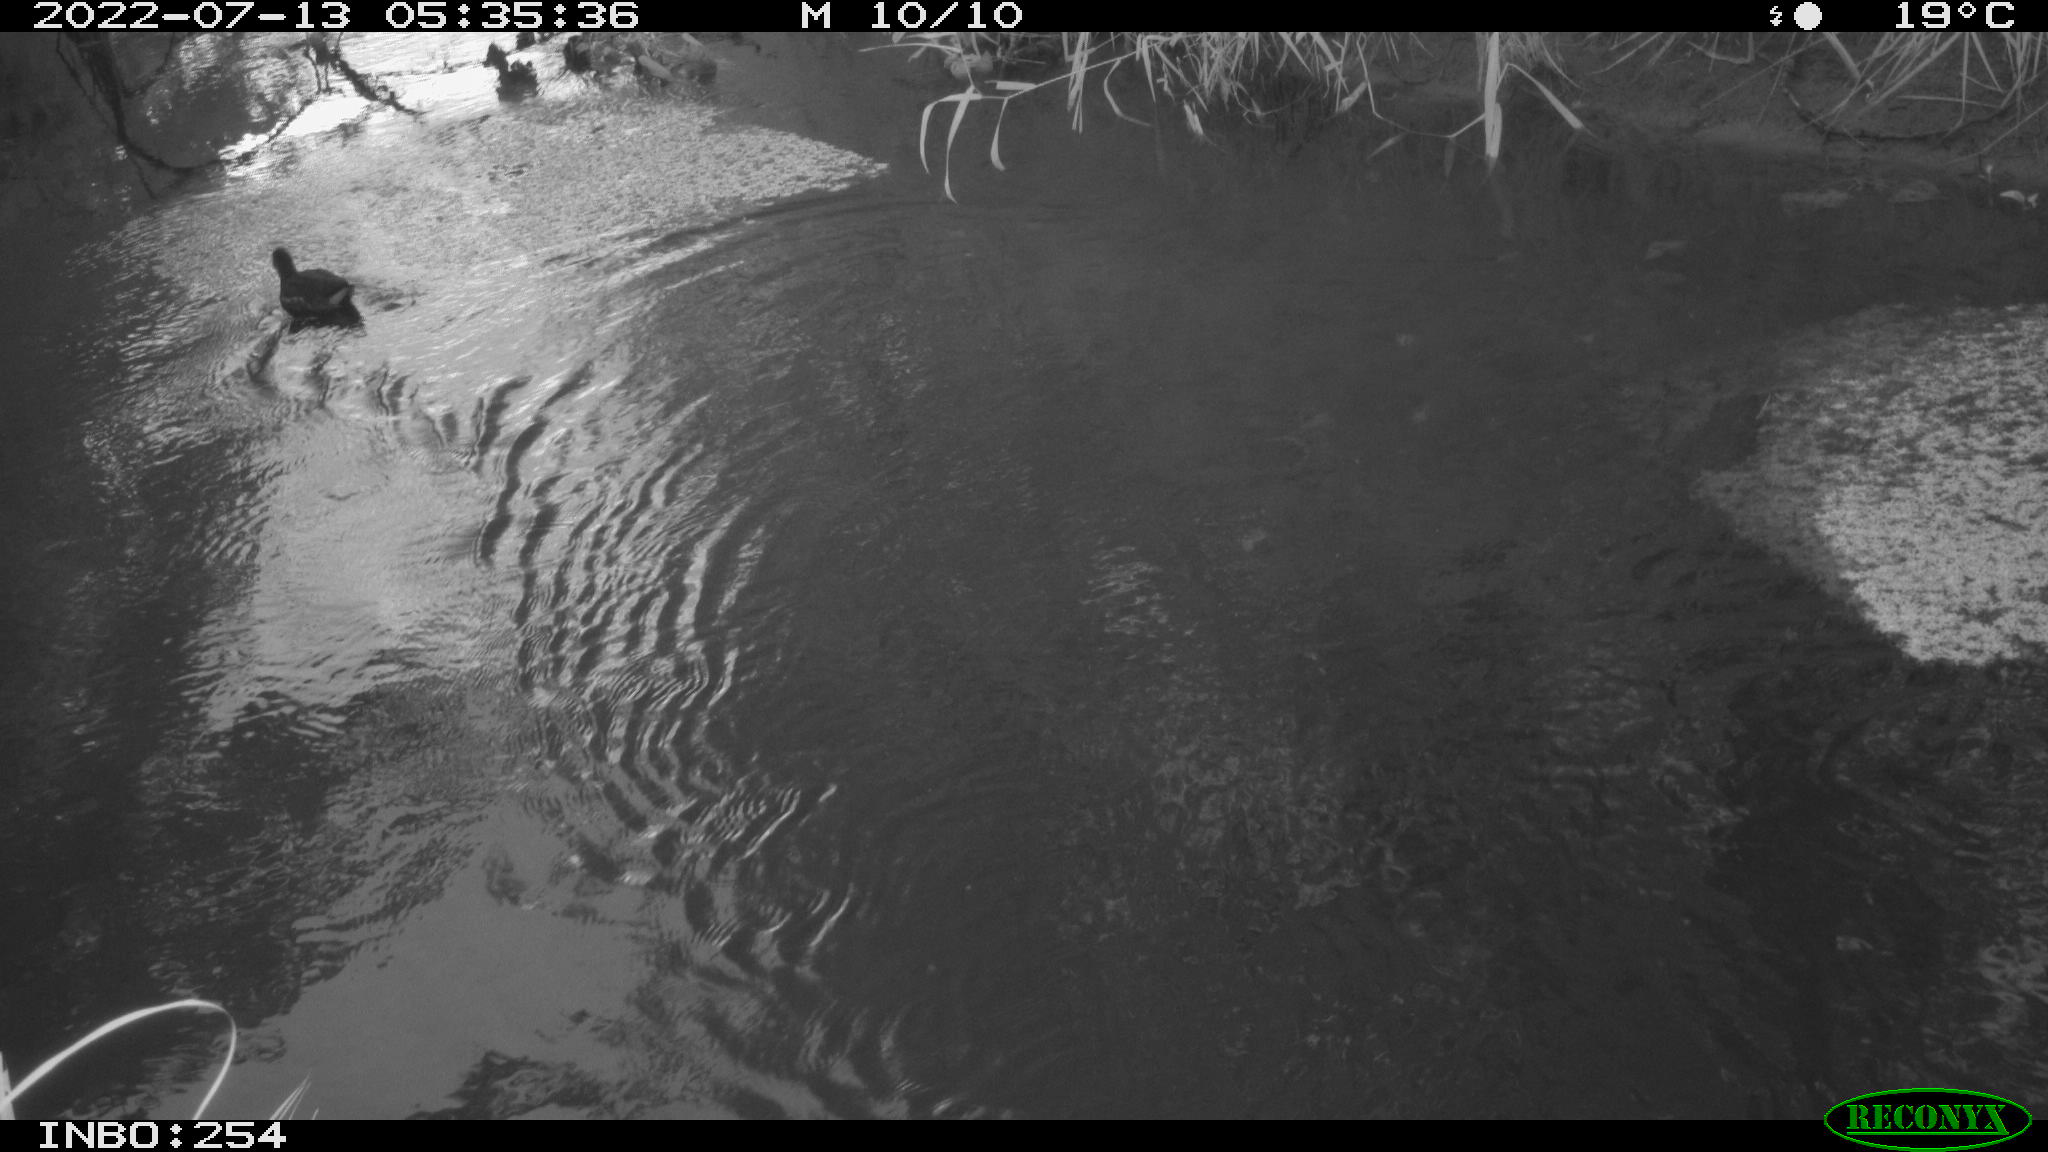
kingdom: Animalia
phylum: Chordata
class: Aves
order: Gruiformes
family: Rallidae
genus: Gallinula
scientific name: Gallinula chloropus
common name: Common moorhen
